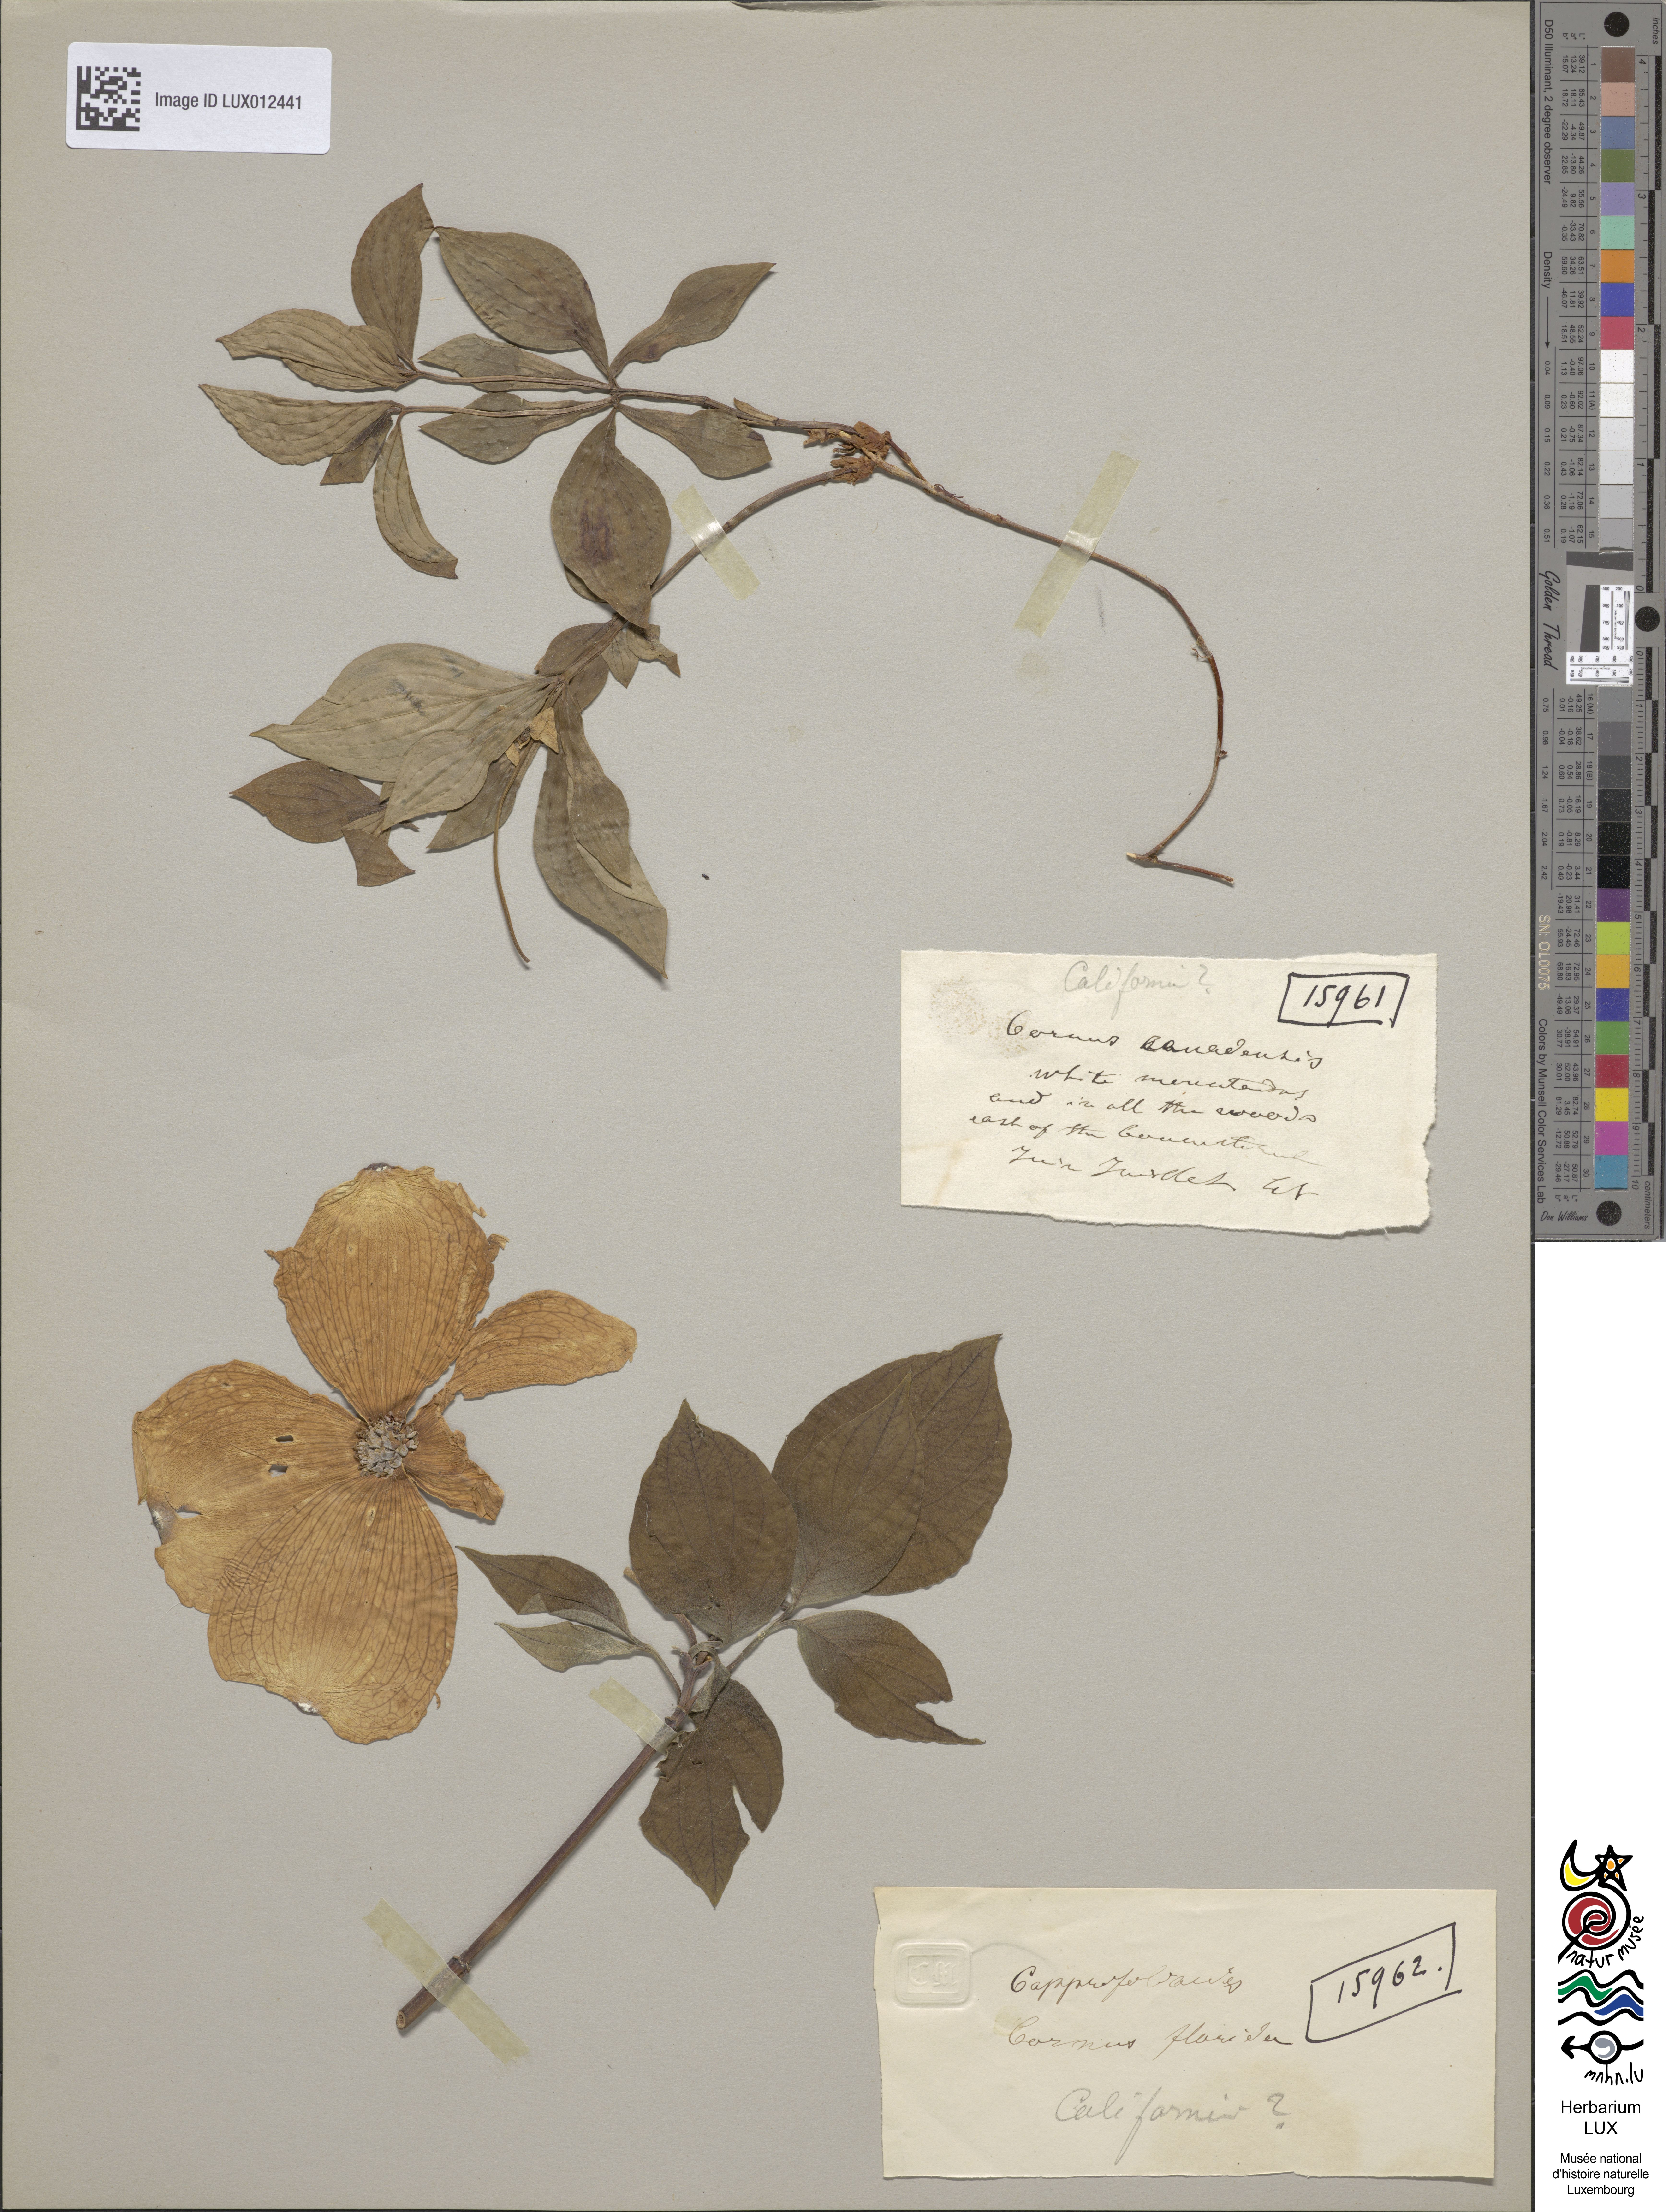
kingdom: Plantae
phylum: Tracheophyta
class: Magnoliopsida
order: Cornales
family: Cornaceae
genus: Cornus
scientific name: Cornus canadensis
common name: Creeping dogwood
